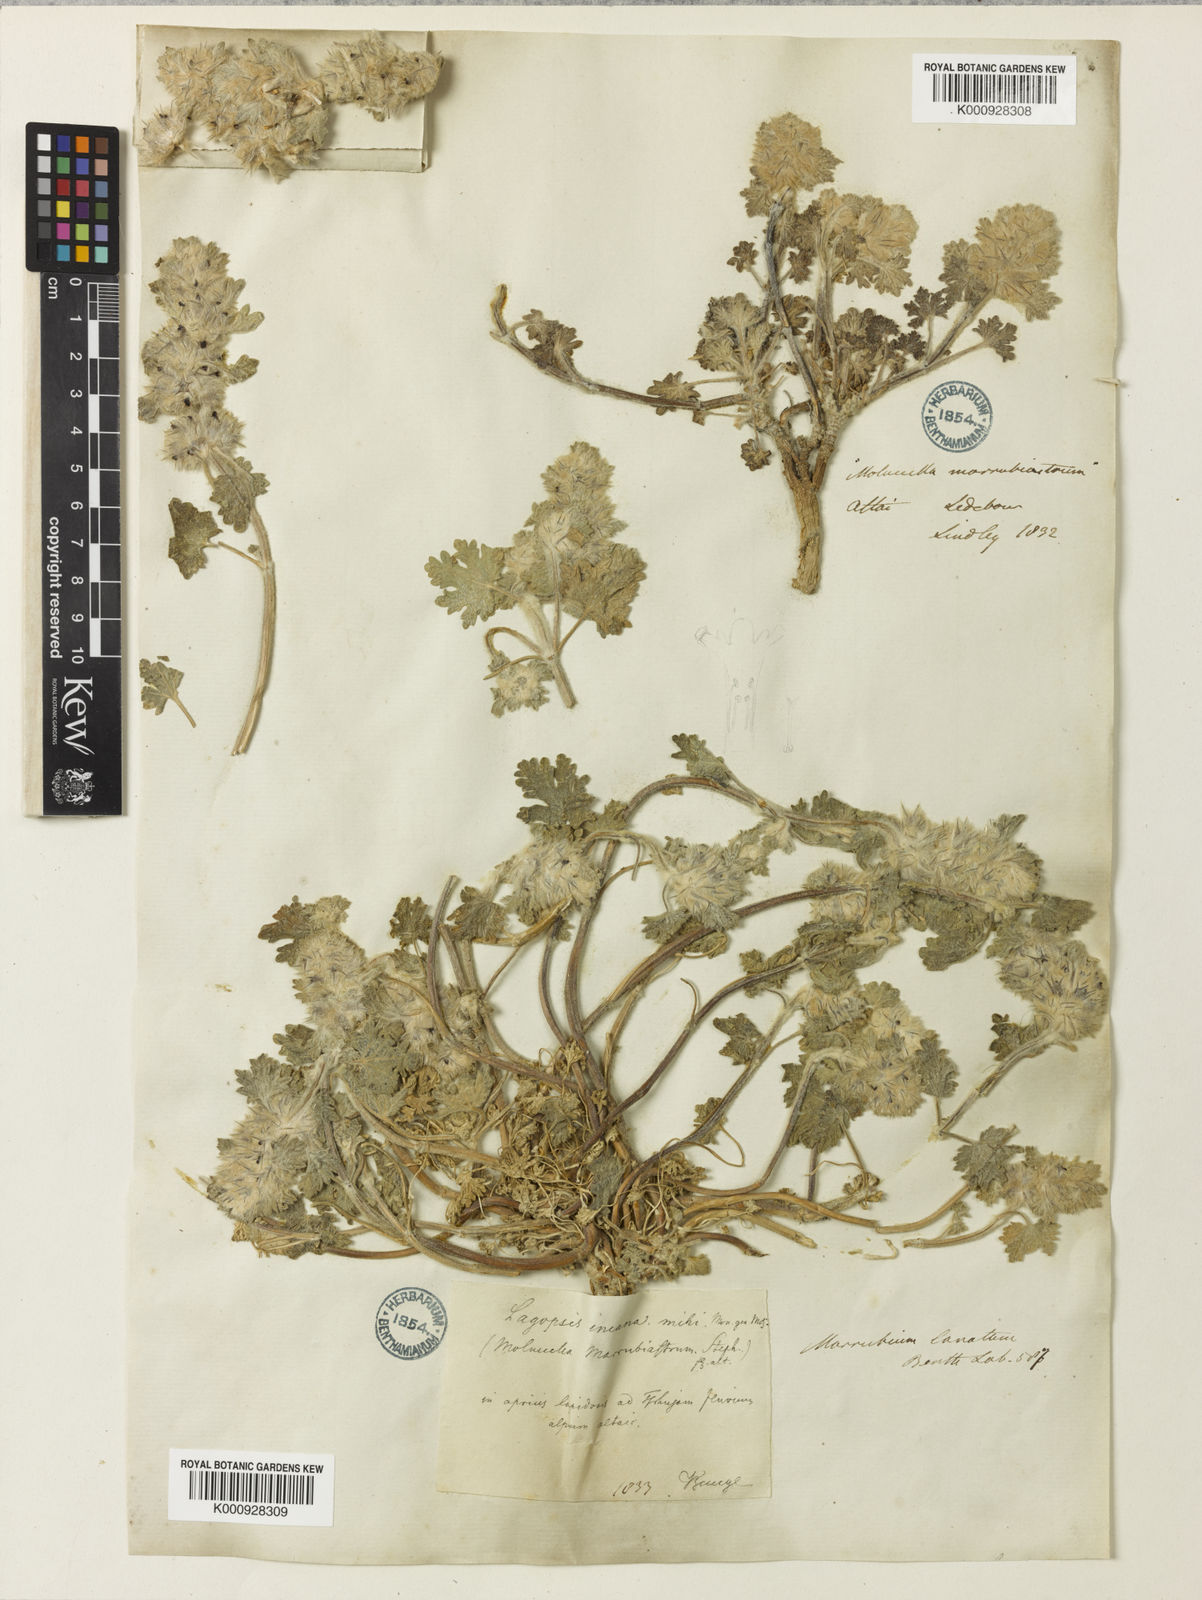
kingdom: Plantae
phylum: Tracheophyta
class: Magnoliopsida
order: Lamiales
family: Lamiaceae
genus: Lagopsis
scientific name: Lagopsis marrubiastrum
